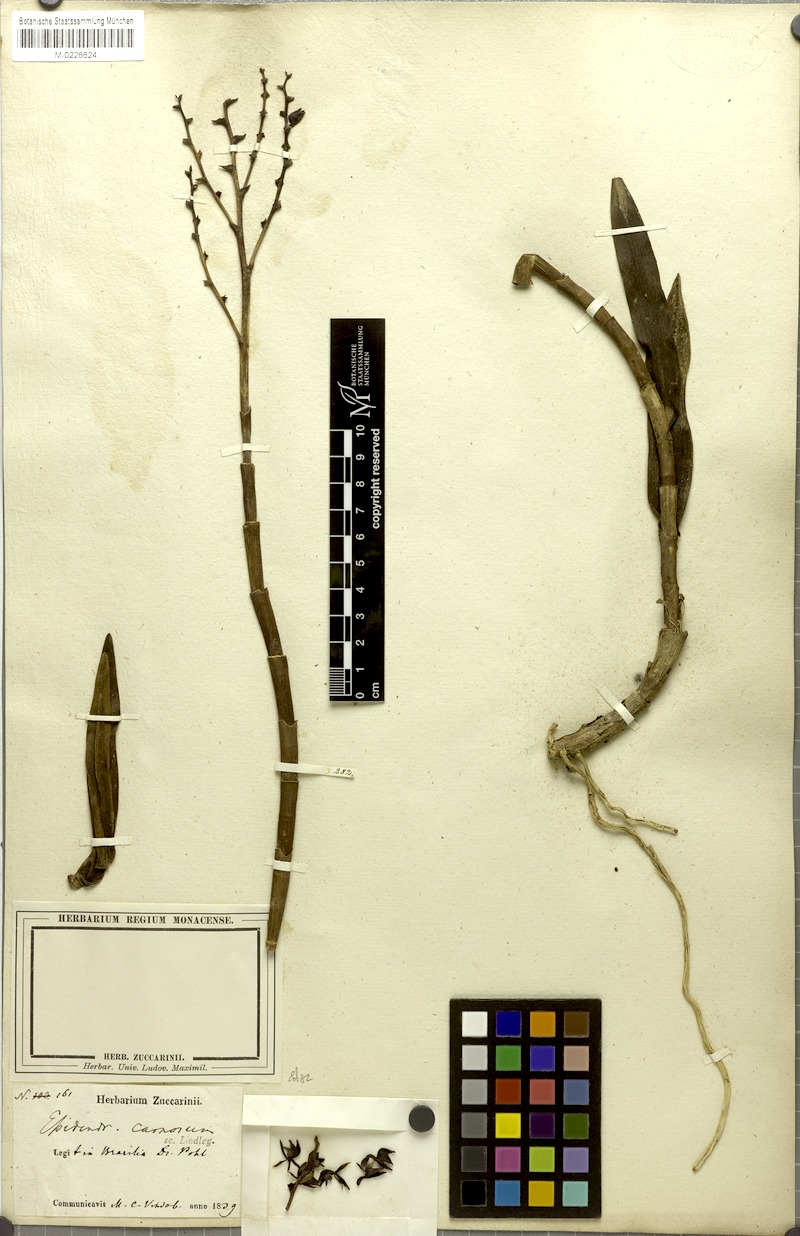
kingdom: Plantae
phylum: Tracheophyta
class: Liliopsida
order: Asparagales
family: Orchidaceae
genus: Epidendrum
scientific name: Epidendrum durum
